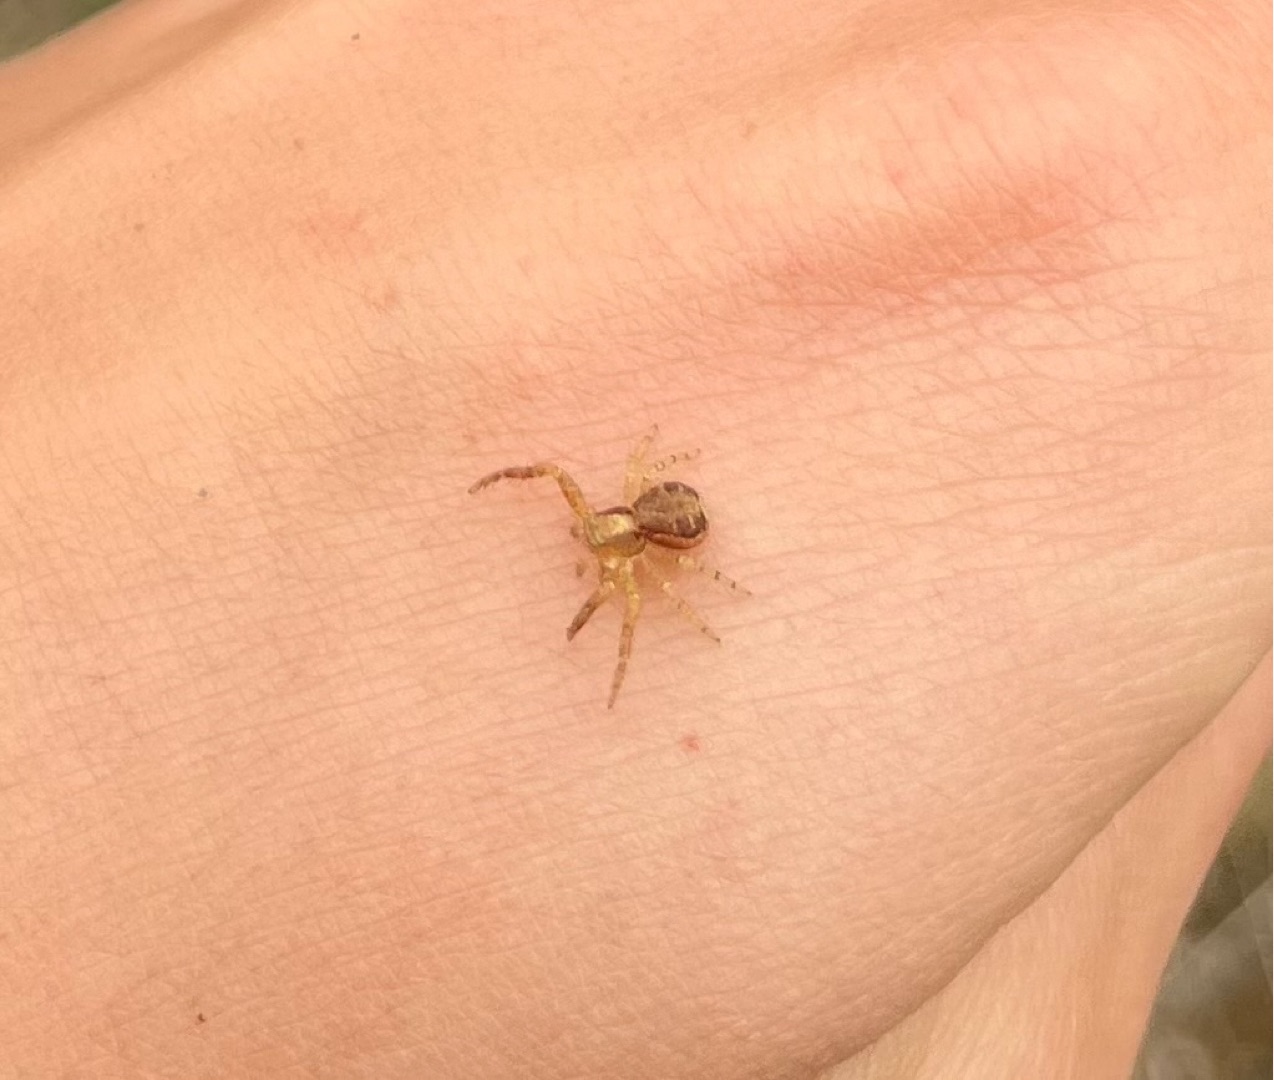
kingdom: Animalia
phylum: Arthropoda
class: Arachnida
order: Araneae
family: Thomisidae
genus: Xysticus
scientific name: Xysticus lanio
